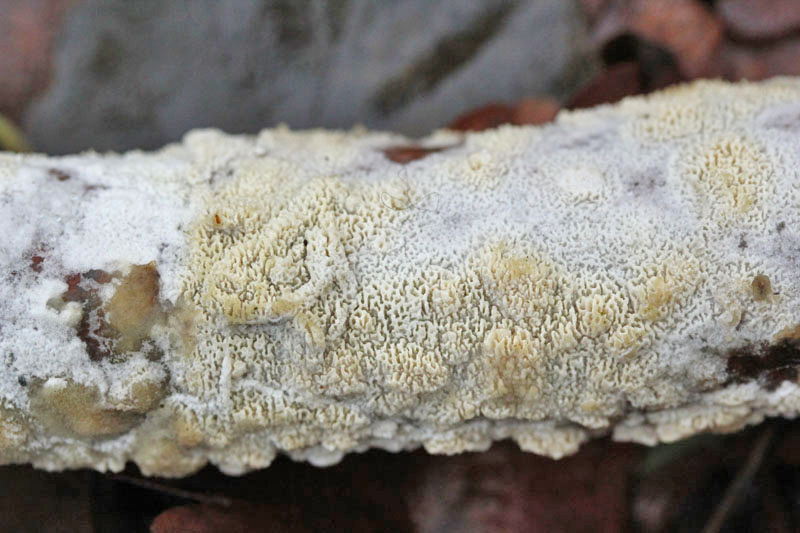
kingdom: Fungi
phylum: Basidiomycota
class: Agaricomycetes
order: Hymenochaetales
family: Schizoporaceae
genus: Xylodon
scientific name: Xylodon subtropicus
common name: labyrint-tandsvamp
